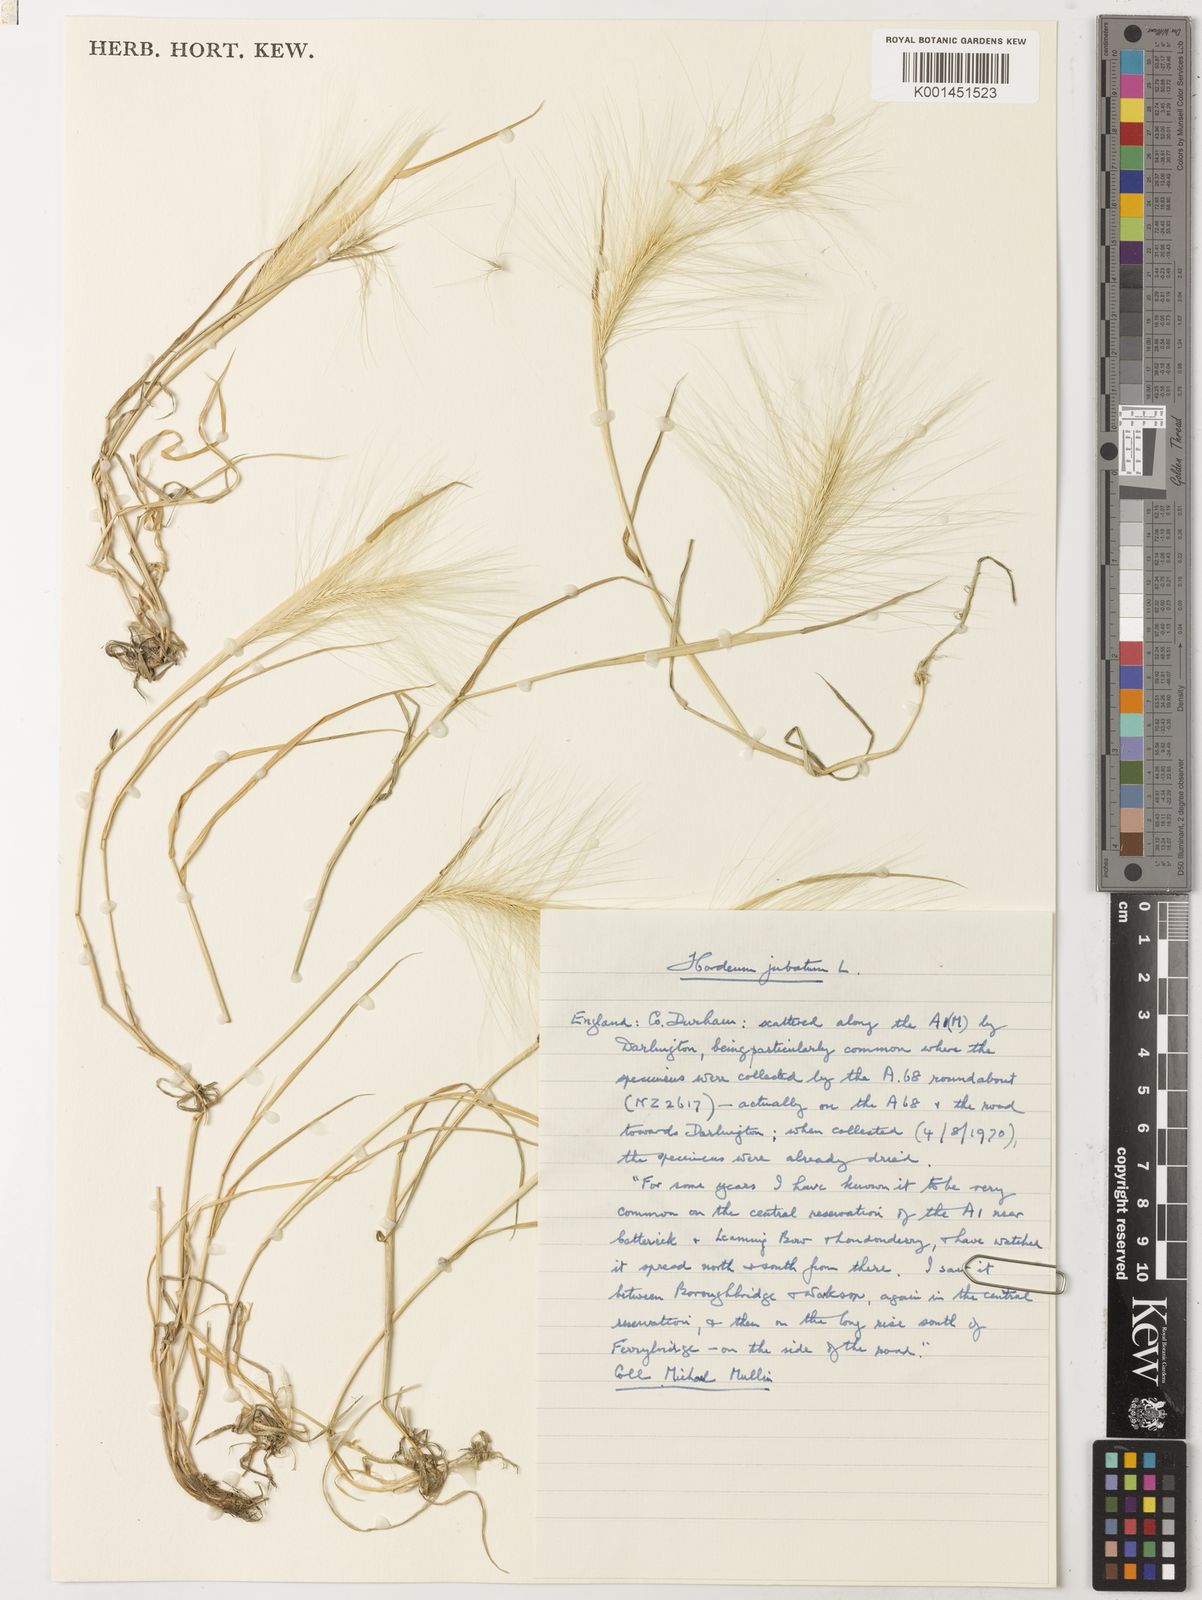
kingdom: Plantae
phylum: Tracheophyta
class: Liliopsida
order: Poales
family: Poaceae
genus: Hordeum
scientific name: Hordeum jubatum
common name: Foxtail barley
